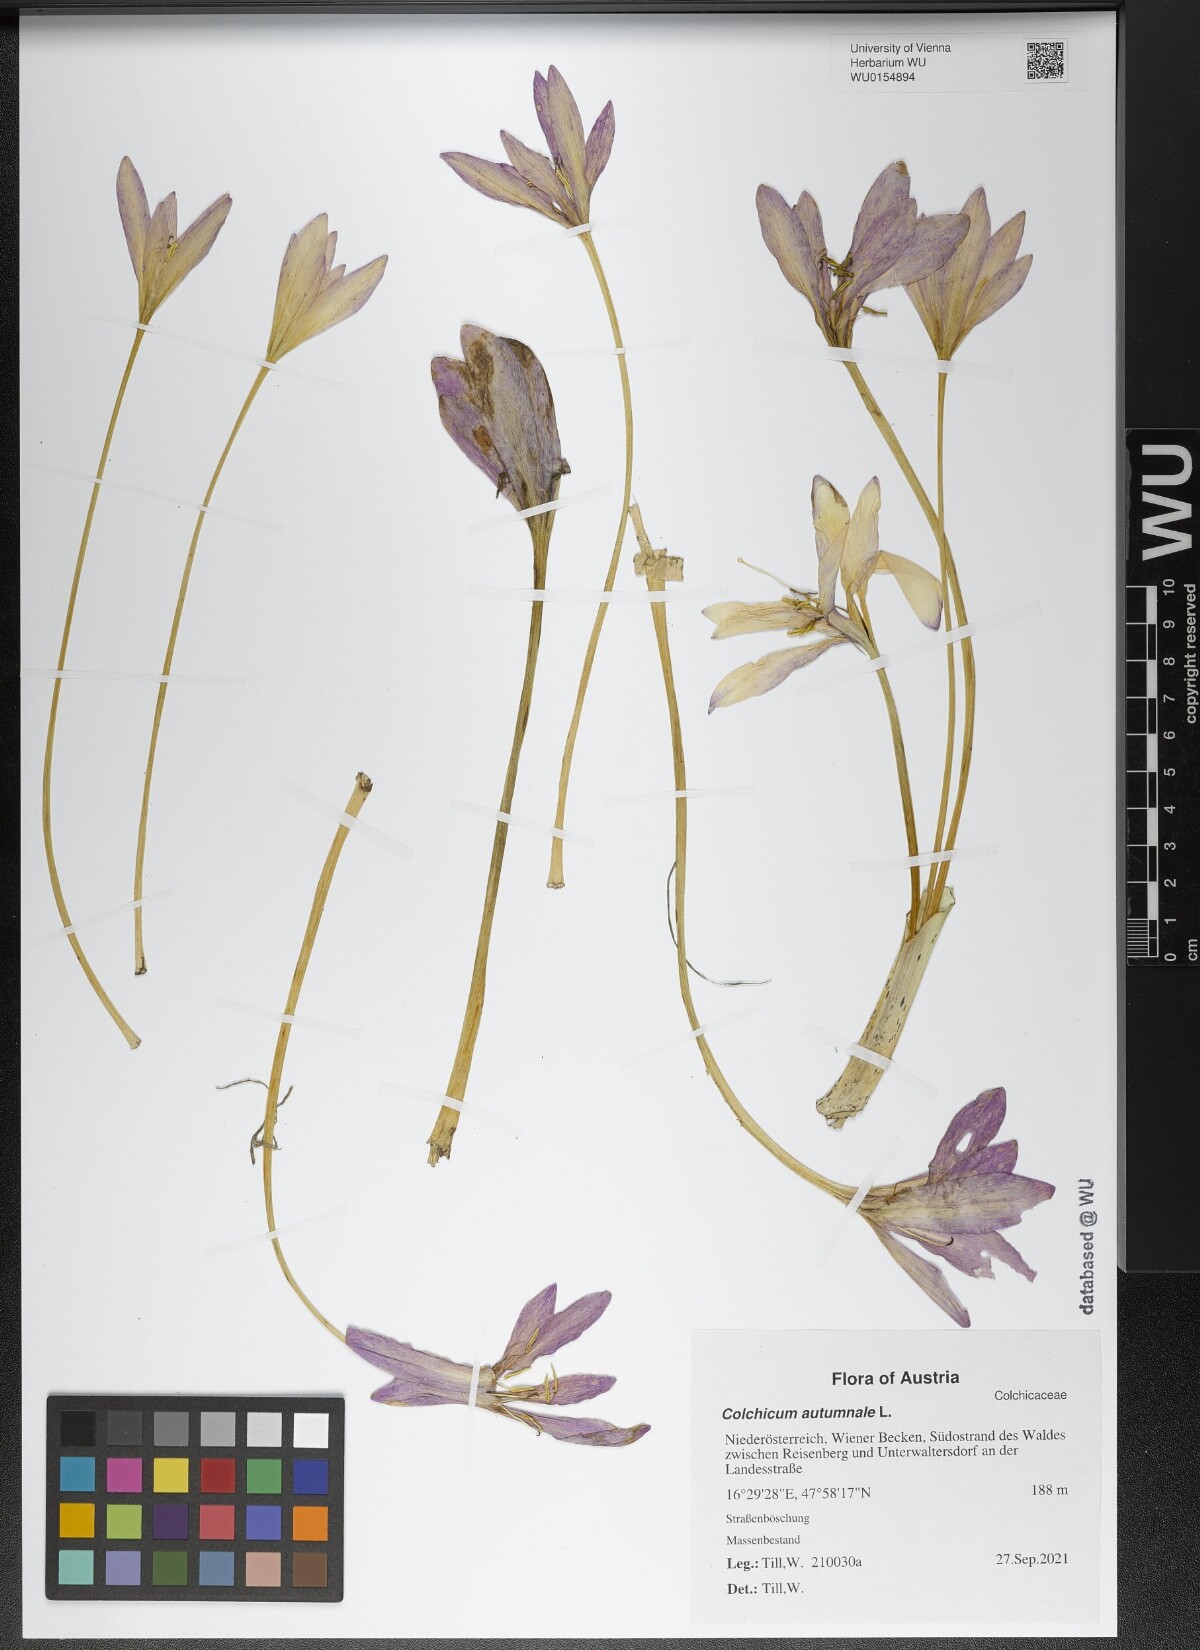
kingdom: Plantae
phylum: Tracheophyta
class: Liliopsida
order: Liliales
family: Colchicaceae
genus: Colchicum
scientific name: Colchicum autumnale
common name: Autumn crocus
